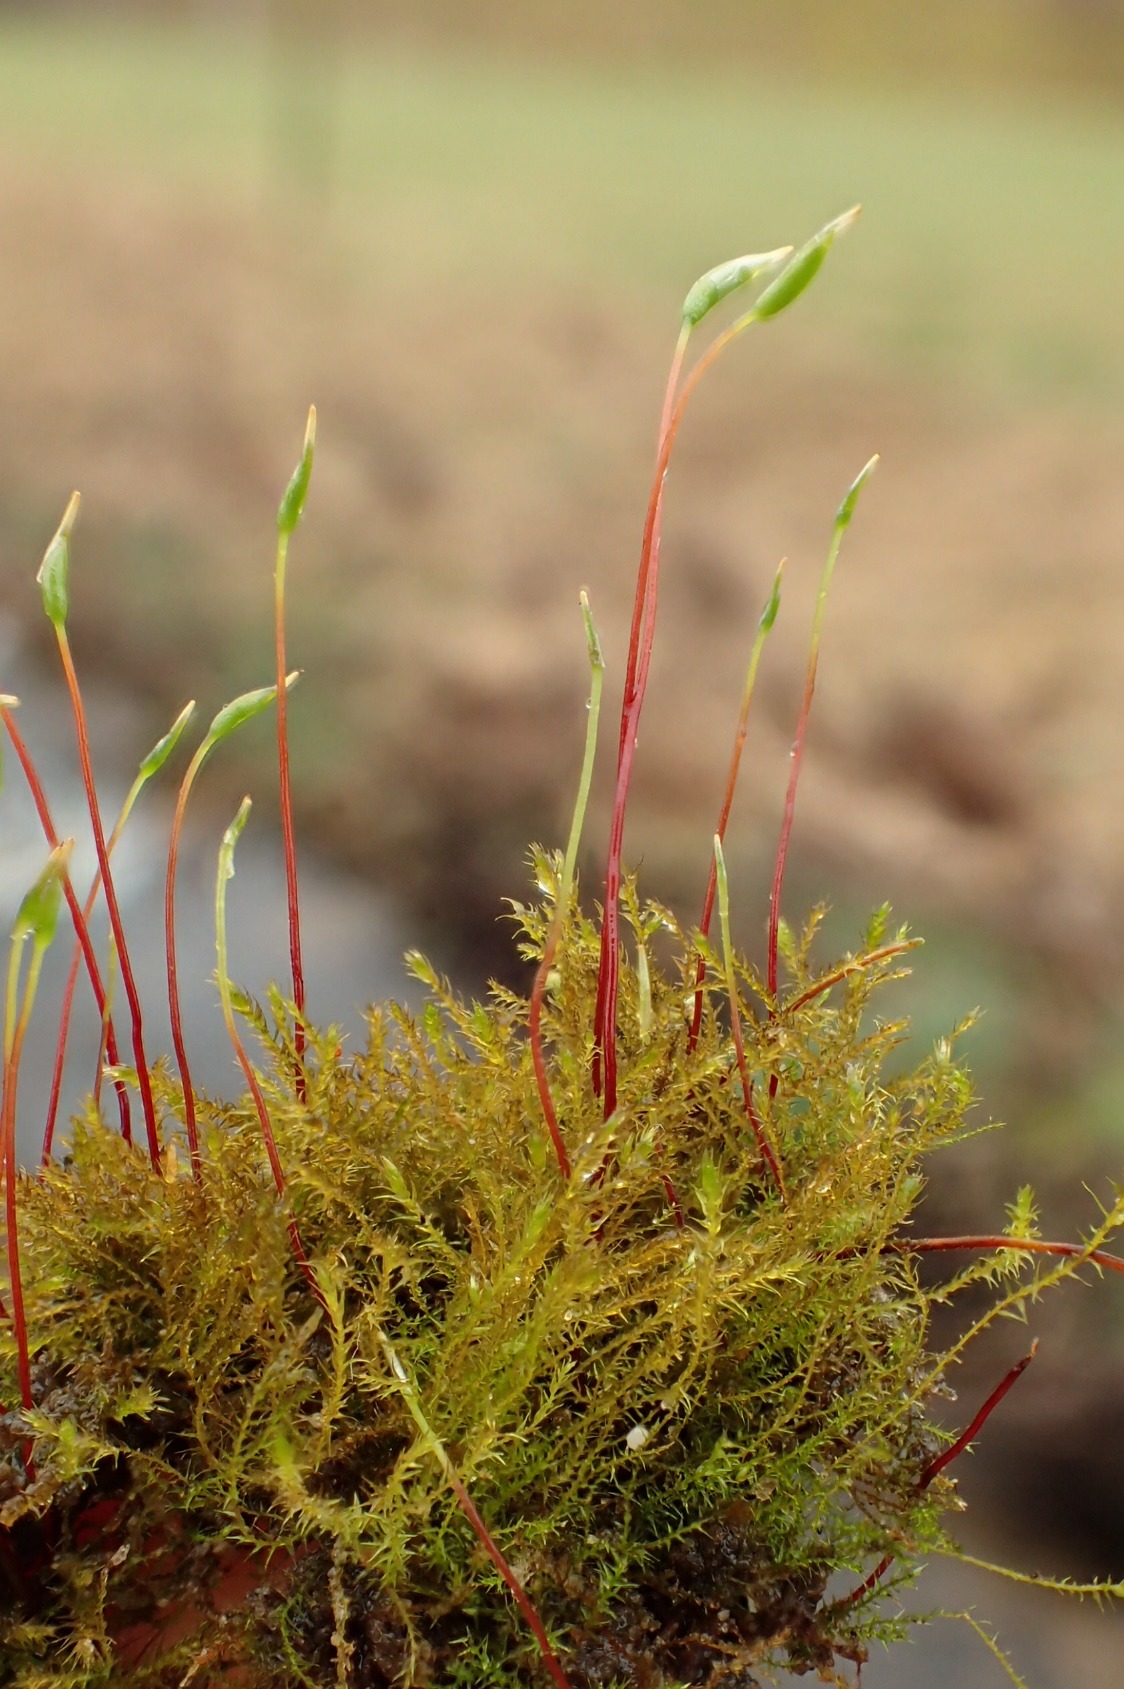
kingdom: Plantae
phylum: Bryophyta
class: Bryopsida
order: Hypnales
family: Amblystegiaceae
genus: Amblystegium
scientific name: Amblystegium serpens
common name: Almindelig krybmos
